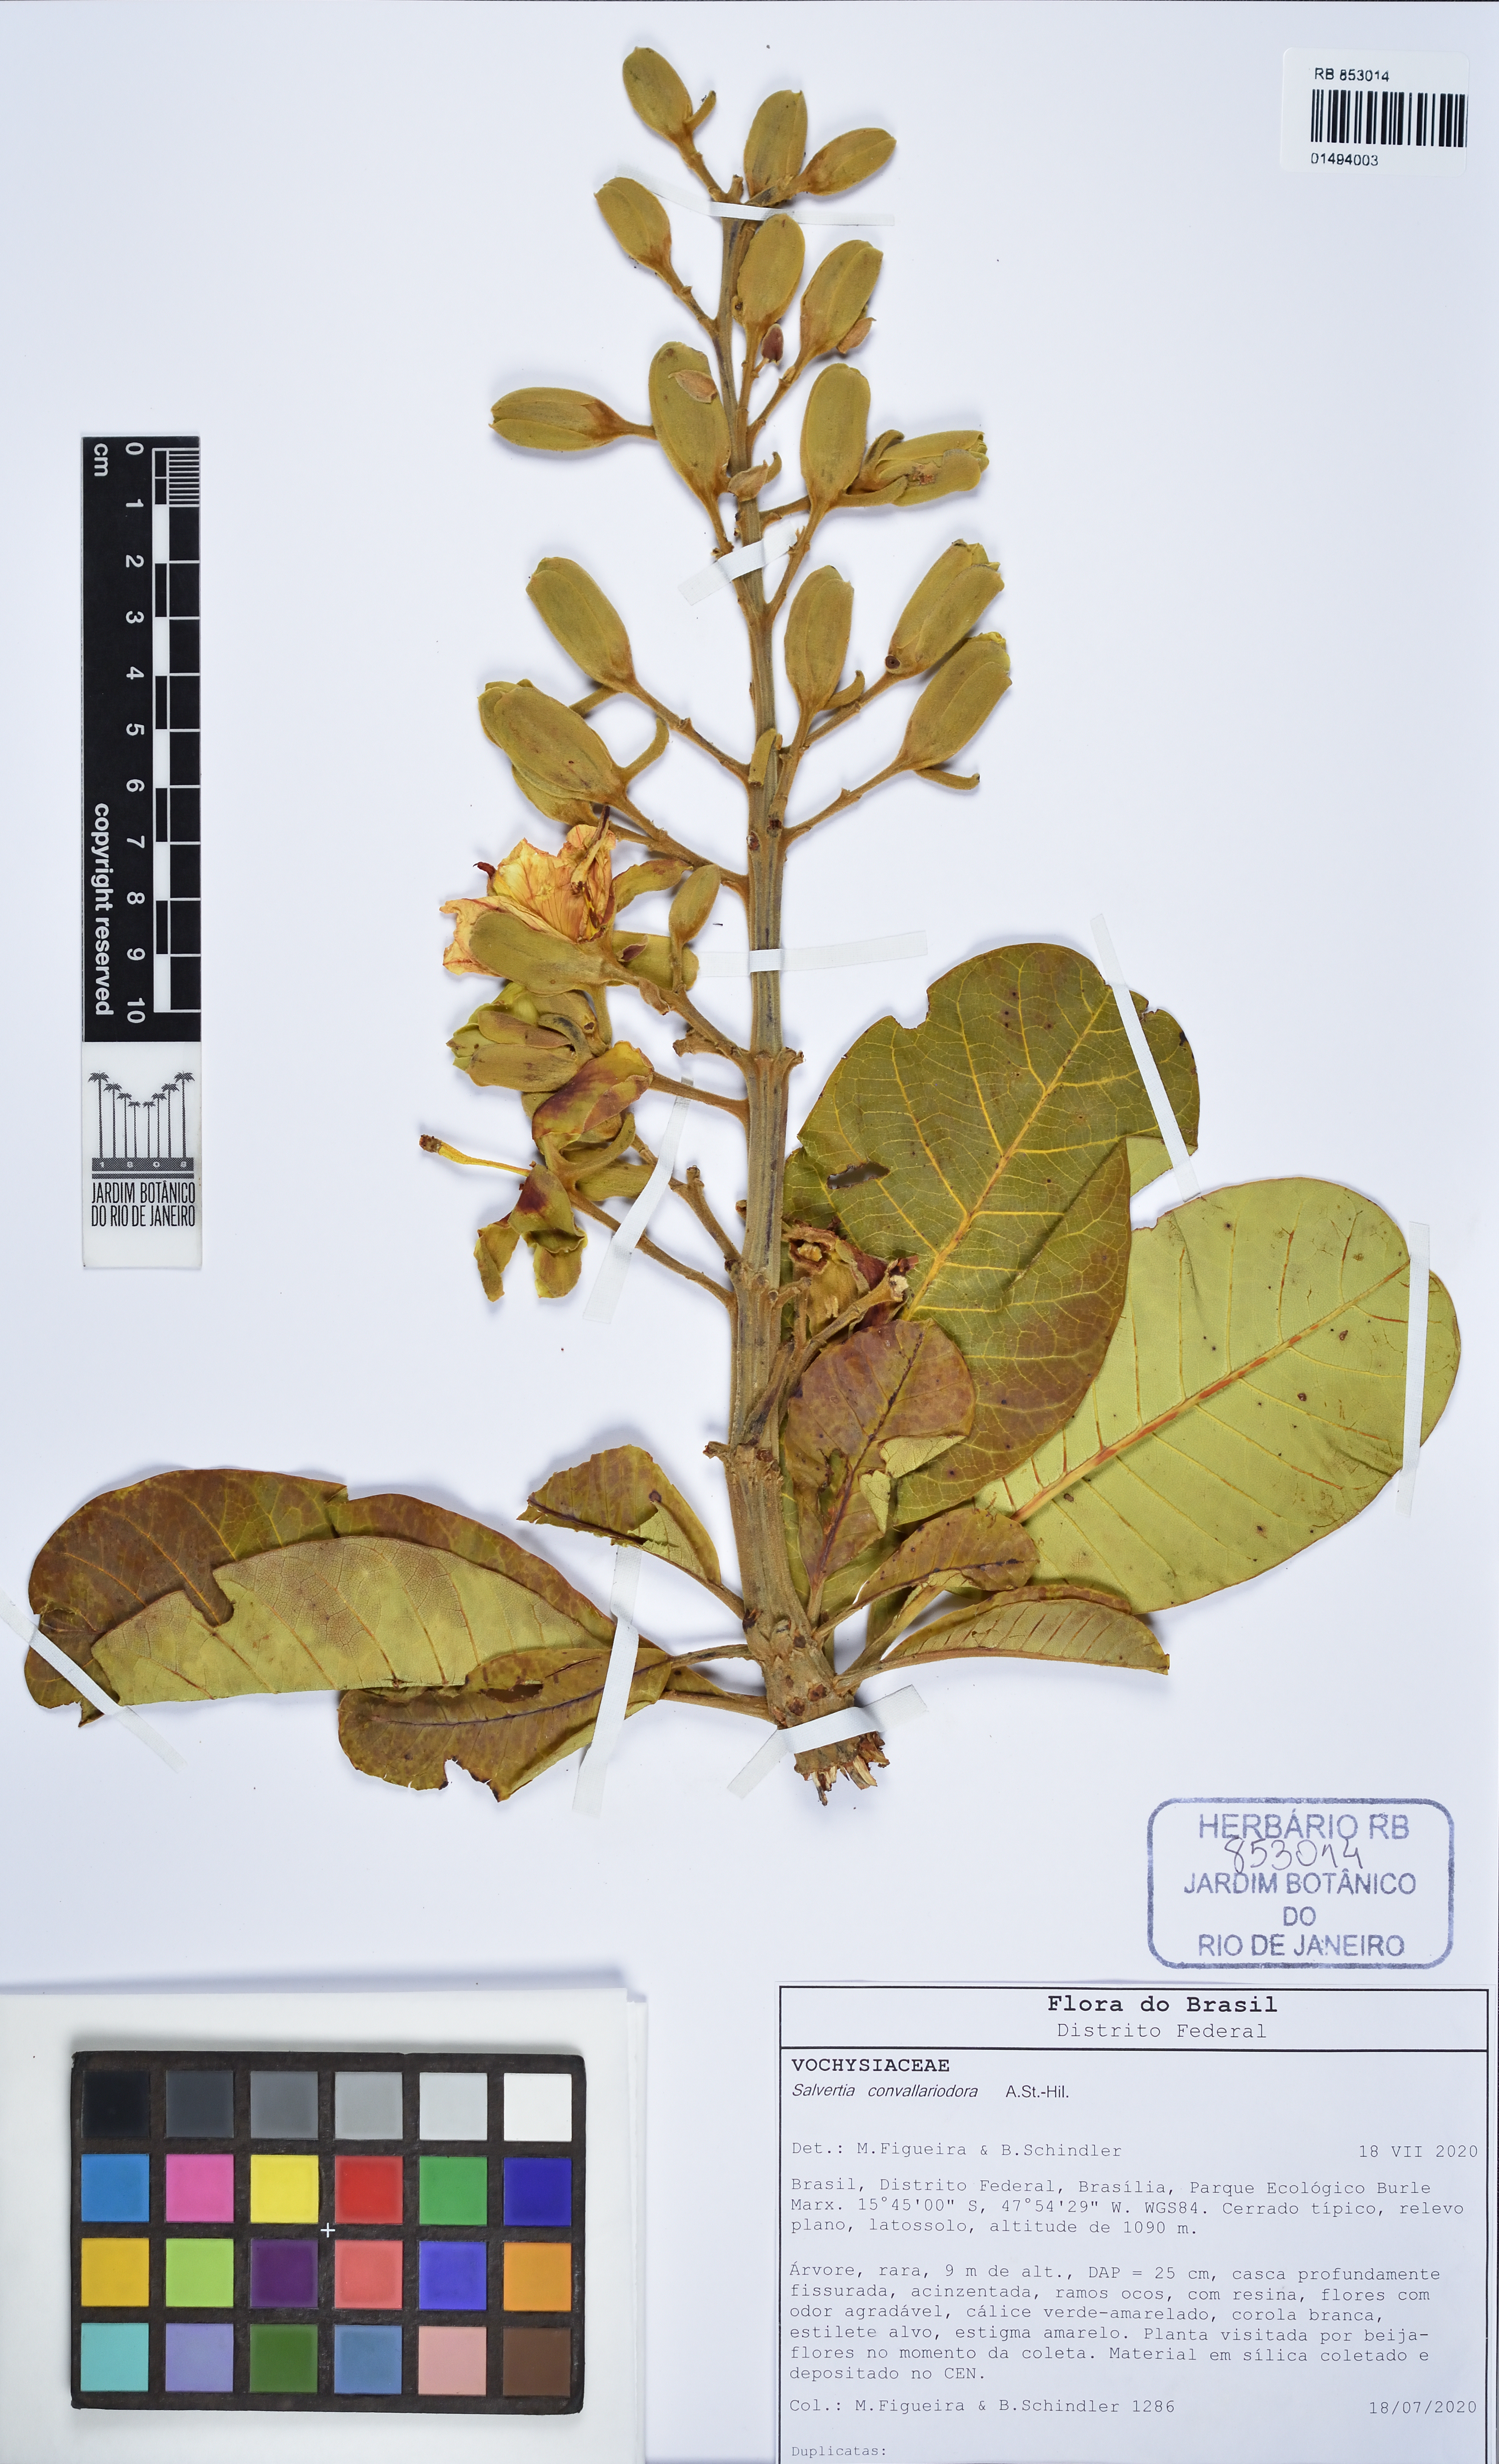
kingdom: Plantae
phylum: Tracheophyta
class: Magnoliopsida
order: Myrtales
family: Vochysiaceae
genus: Salvertia
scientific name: Salvertia convallariodora
